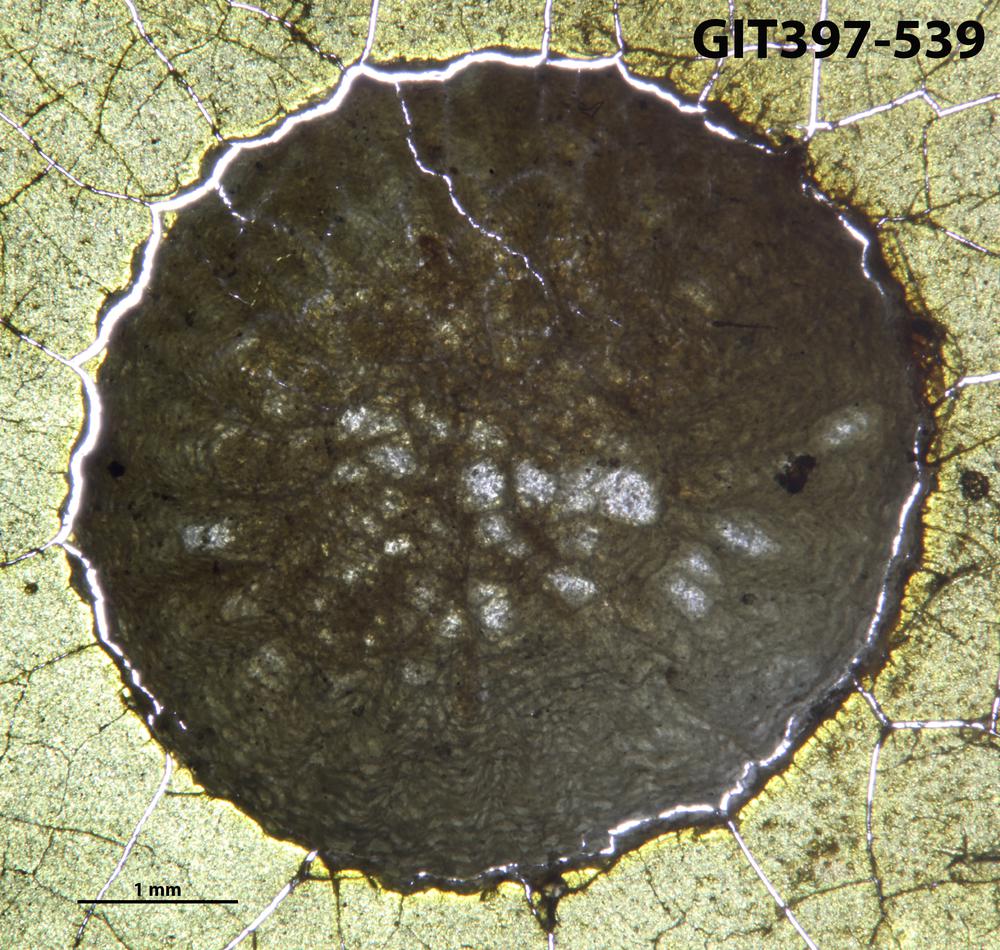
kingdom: Animalia
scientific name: Animalia
